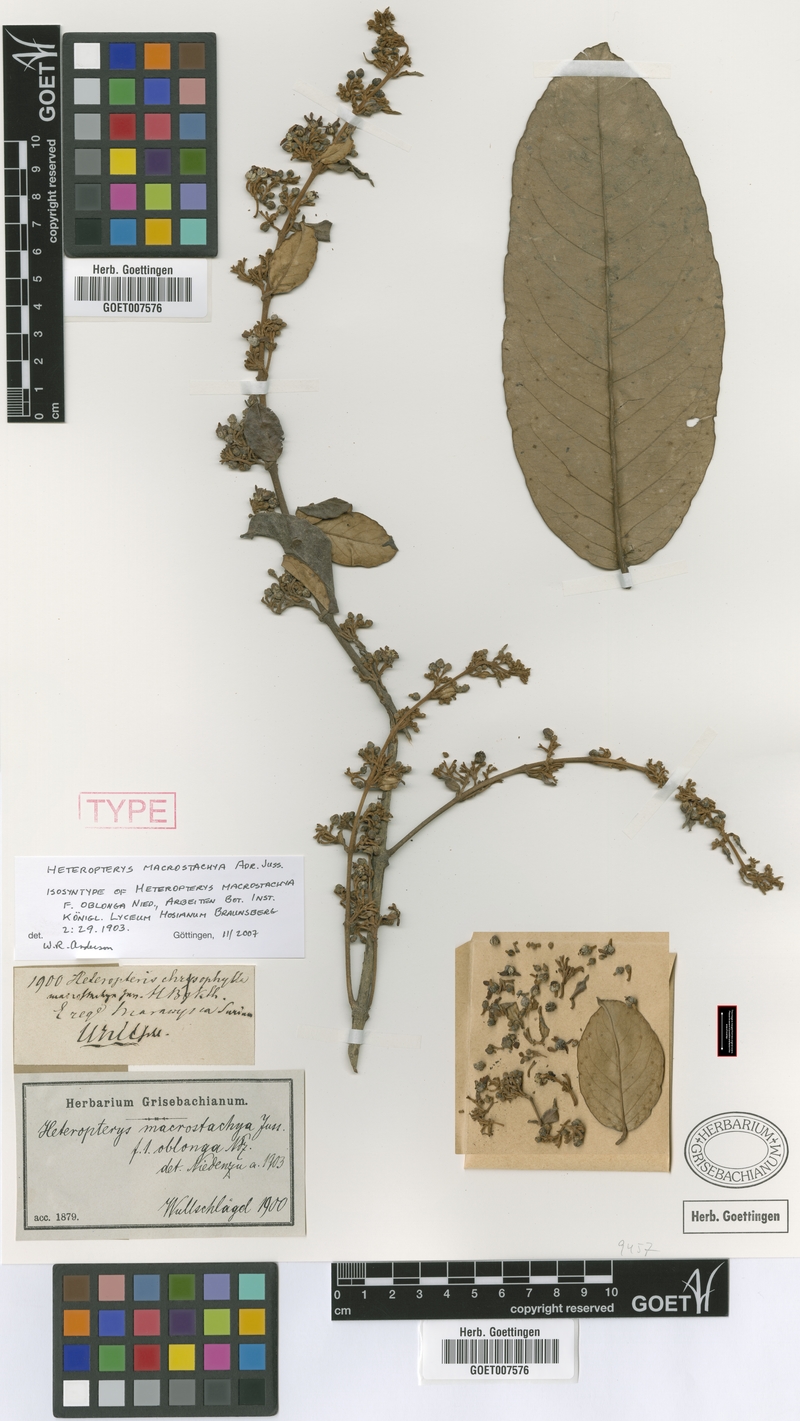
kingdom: Plantae
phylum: Tracheophyta
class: Magnoliopsida
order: Malpighiales
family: Malpighiaceae
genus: Heteropterys
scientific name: Heteropterys macrostachya
